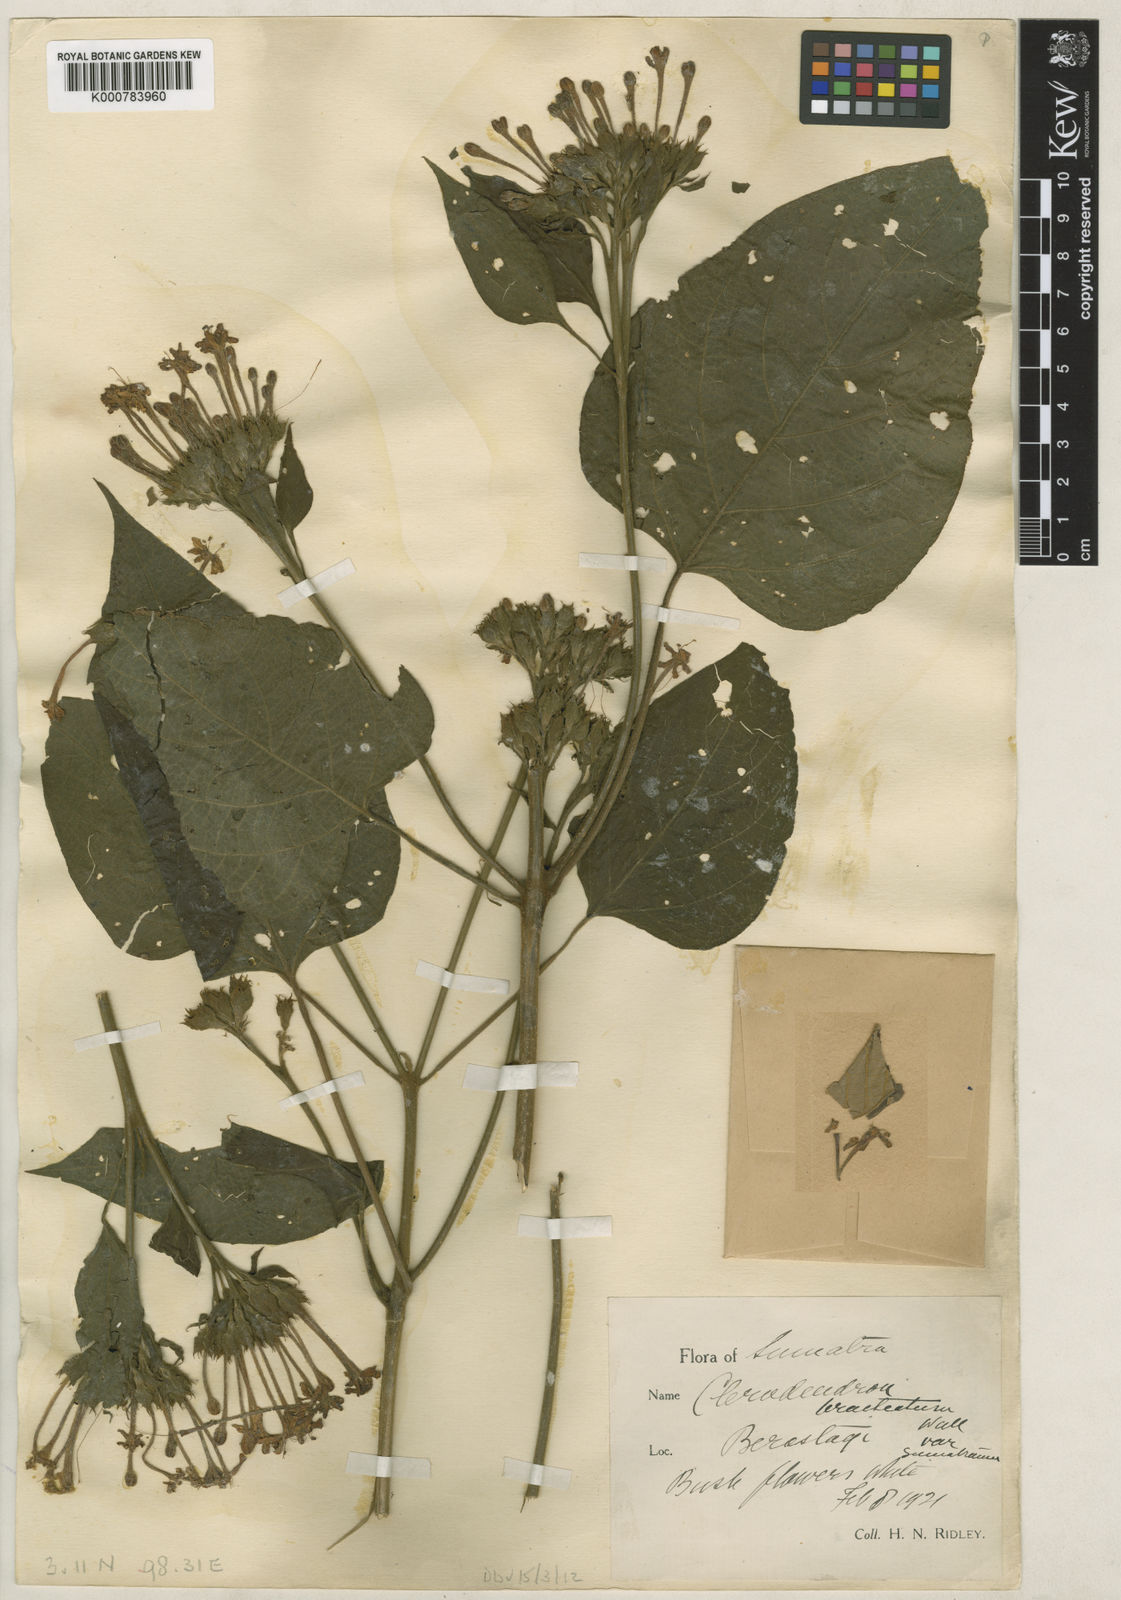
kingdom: Plantae
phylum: Tracheophyta
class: Magnoliopsida
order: Lamiales
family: Lamiaceae
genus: Clerodendrum
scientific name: Clerodendrum
